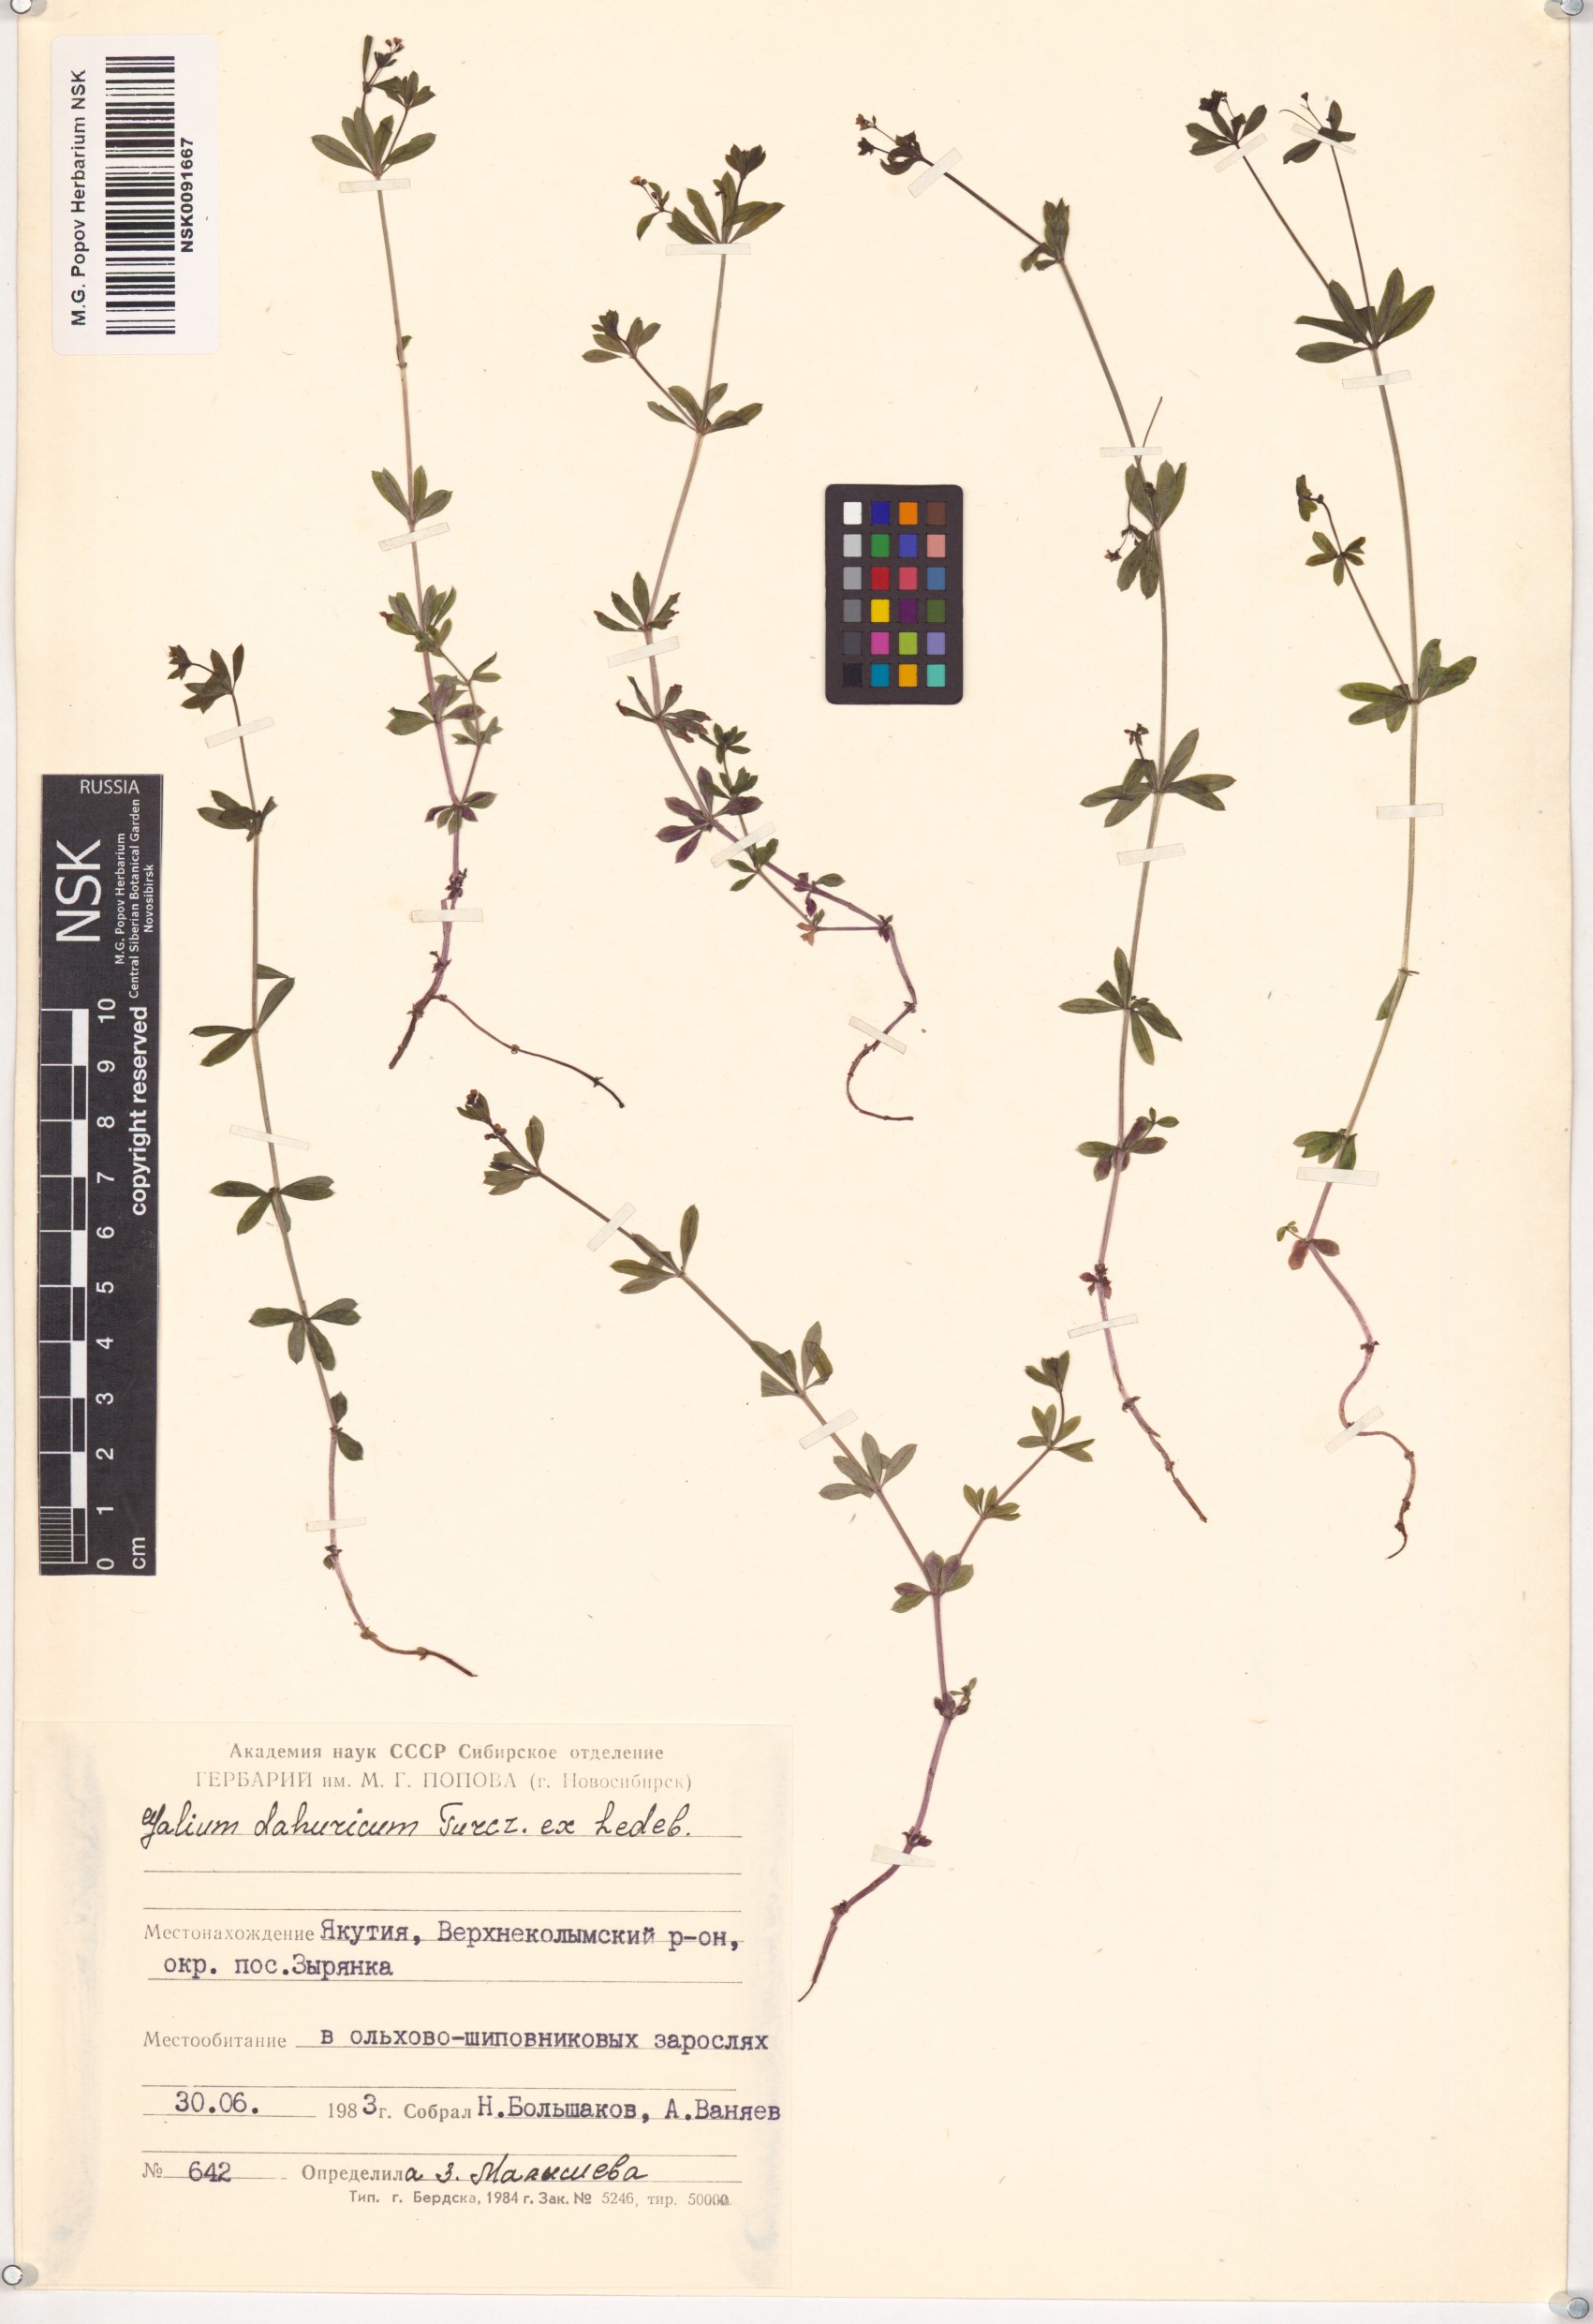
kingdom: Plantae
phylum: Tracheophyta
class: Magnoliopsida
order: Gentianales
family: Rubiaceae
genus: Galium
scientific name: Galium dahuricum
